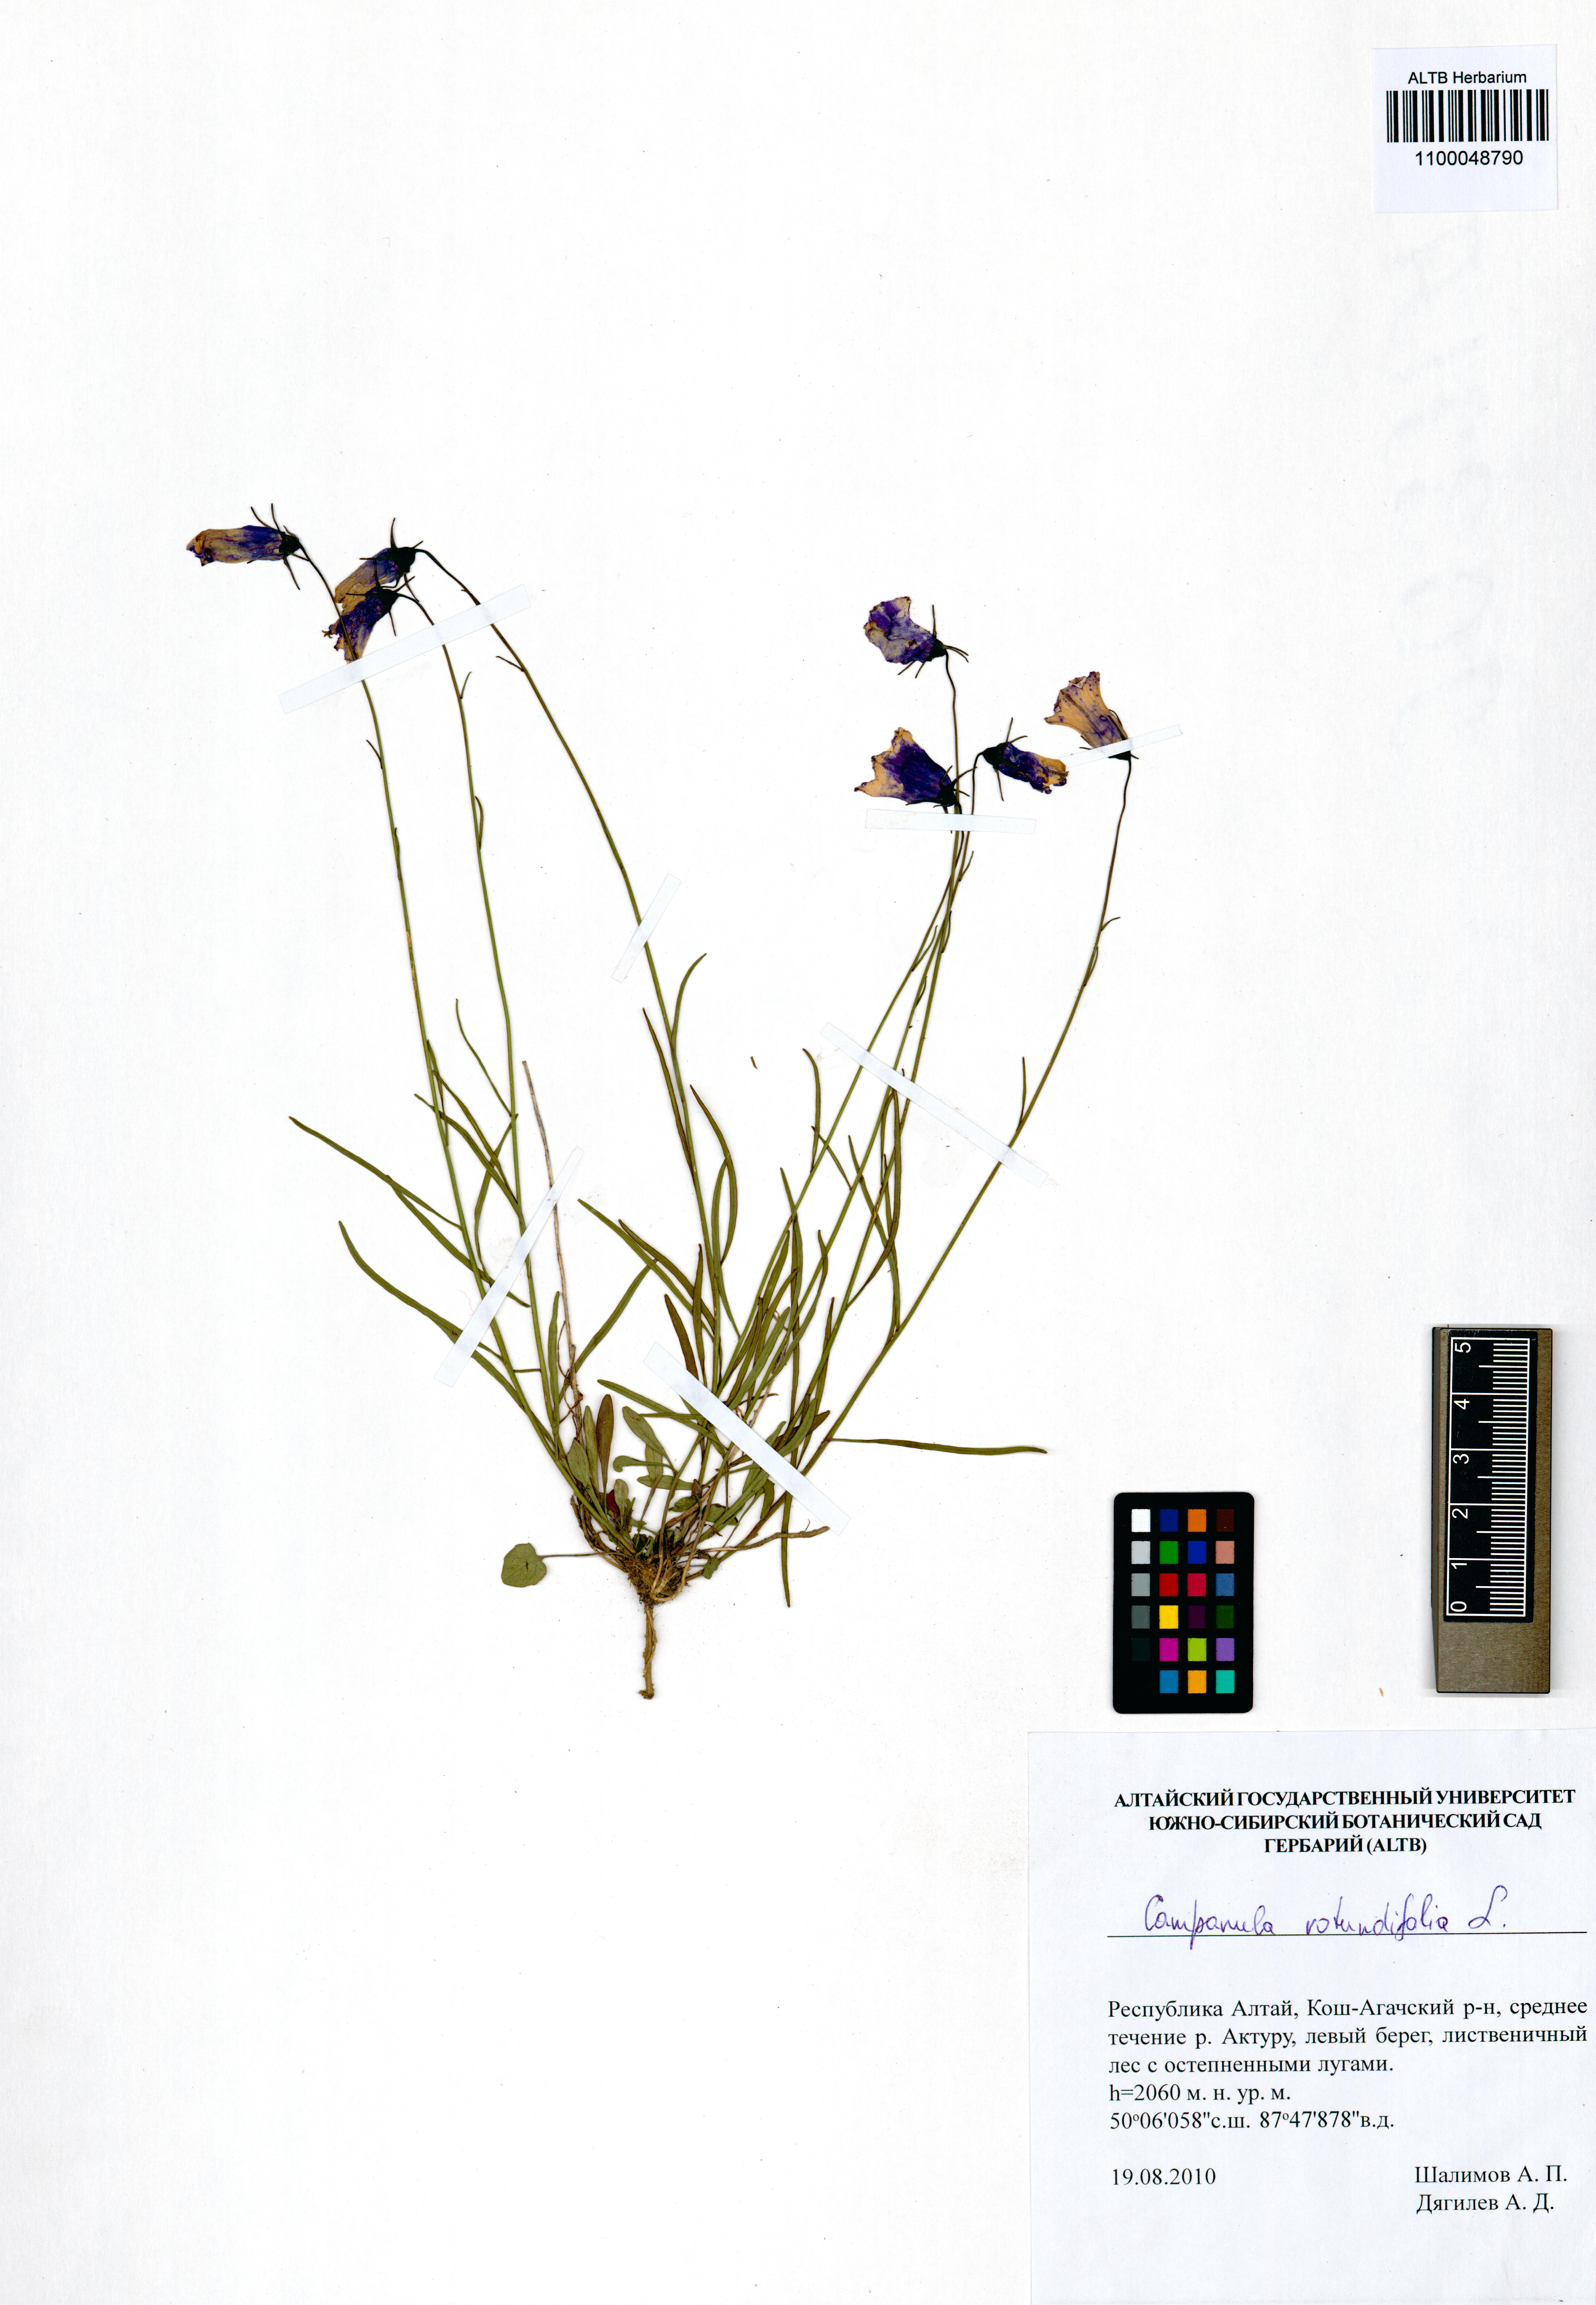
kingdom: Plantae
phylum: Tracheophyta
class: Magnoliopsida
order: Asterales
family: Campanulaceae
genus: Campanula
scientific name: Campanula rotundifolia
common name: Harebell
